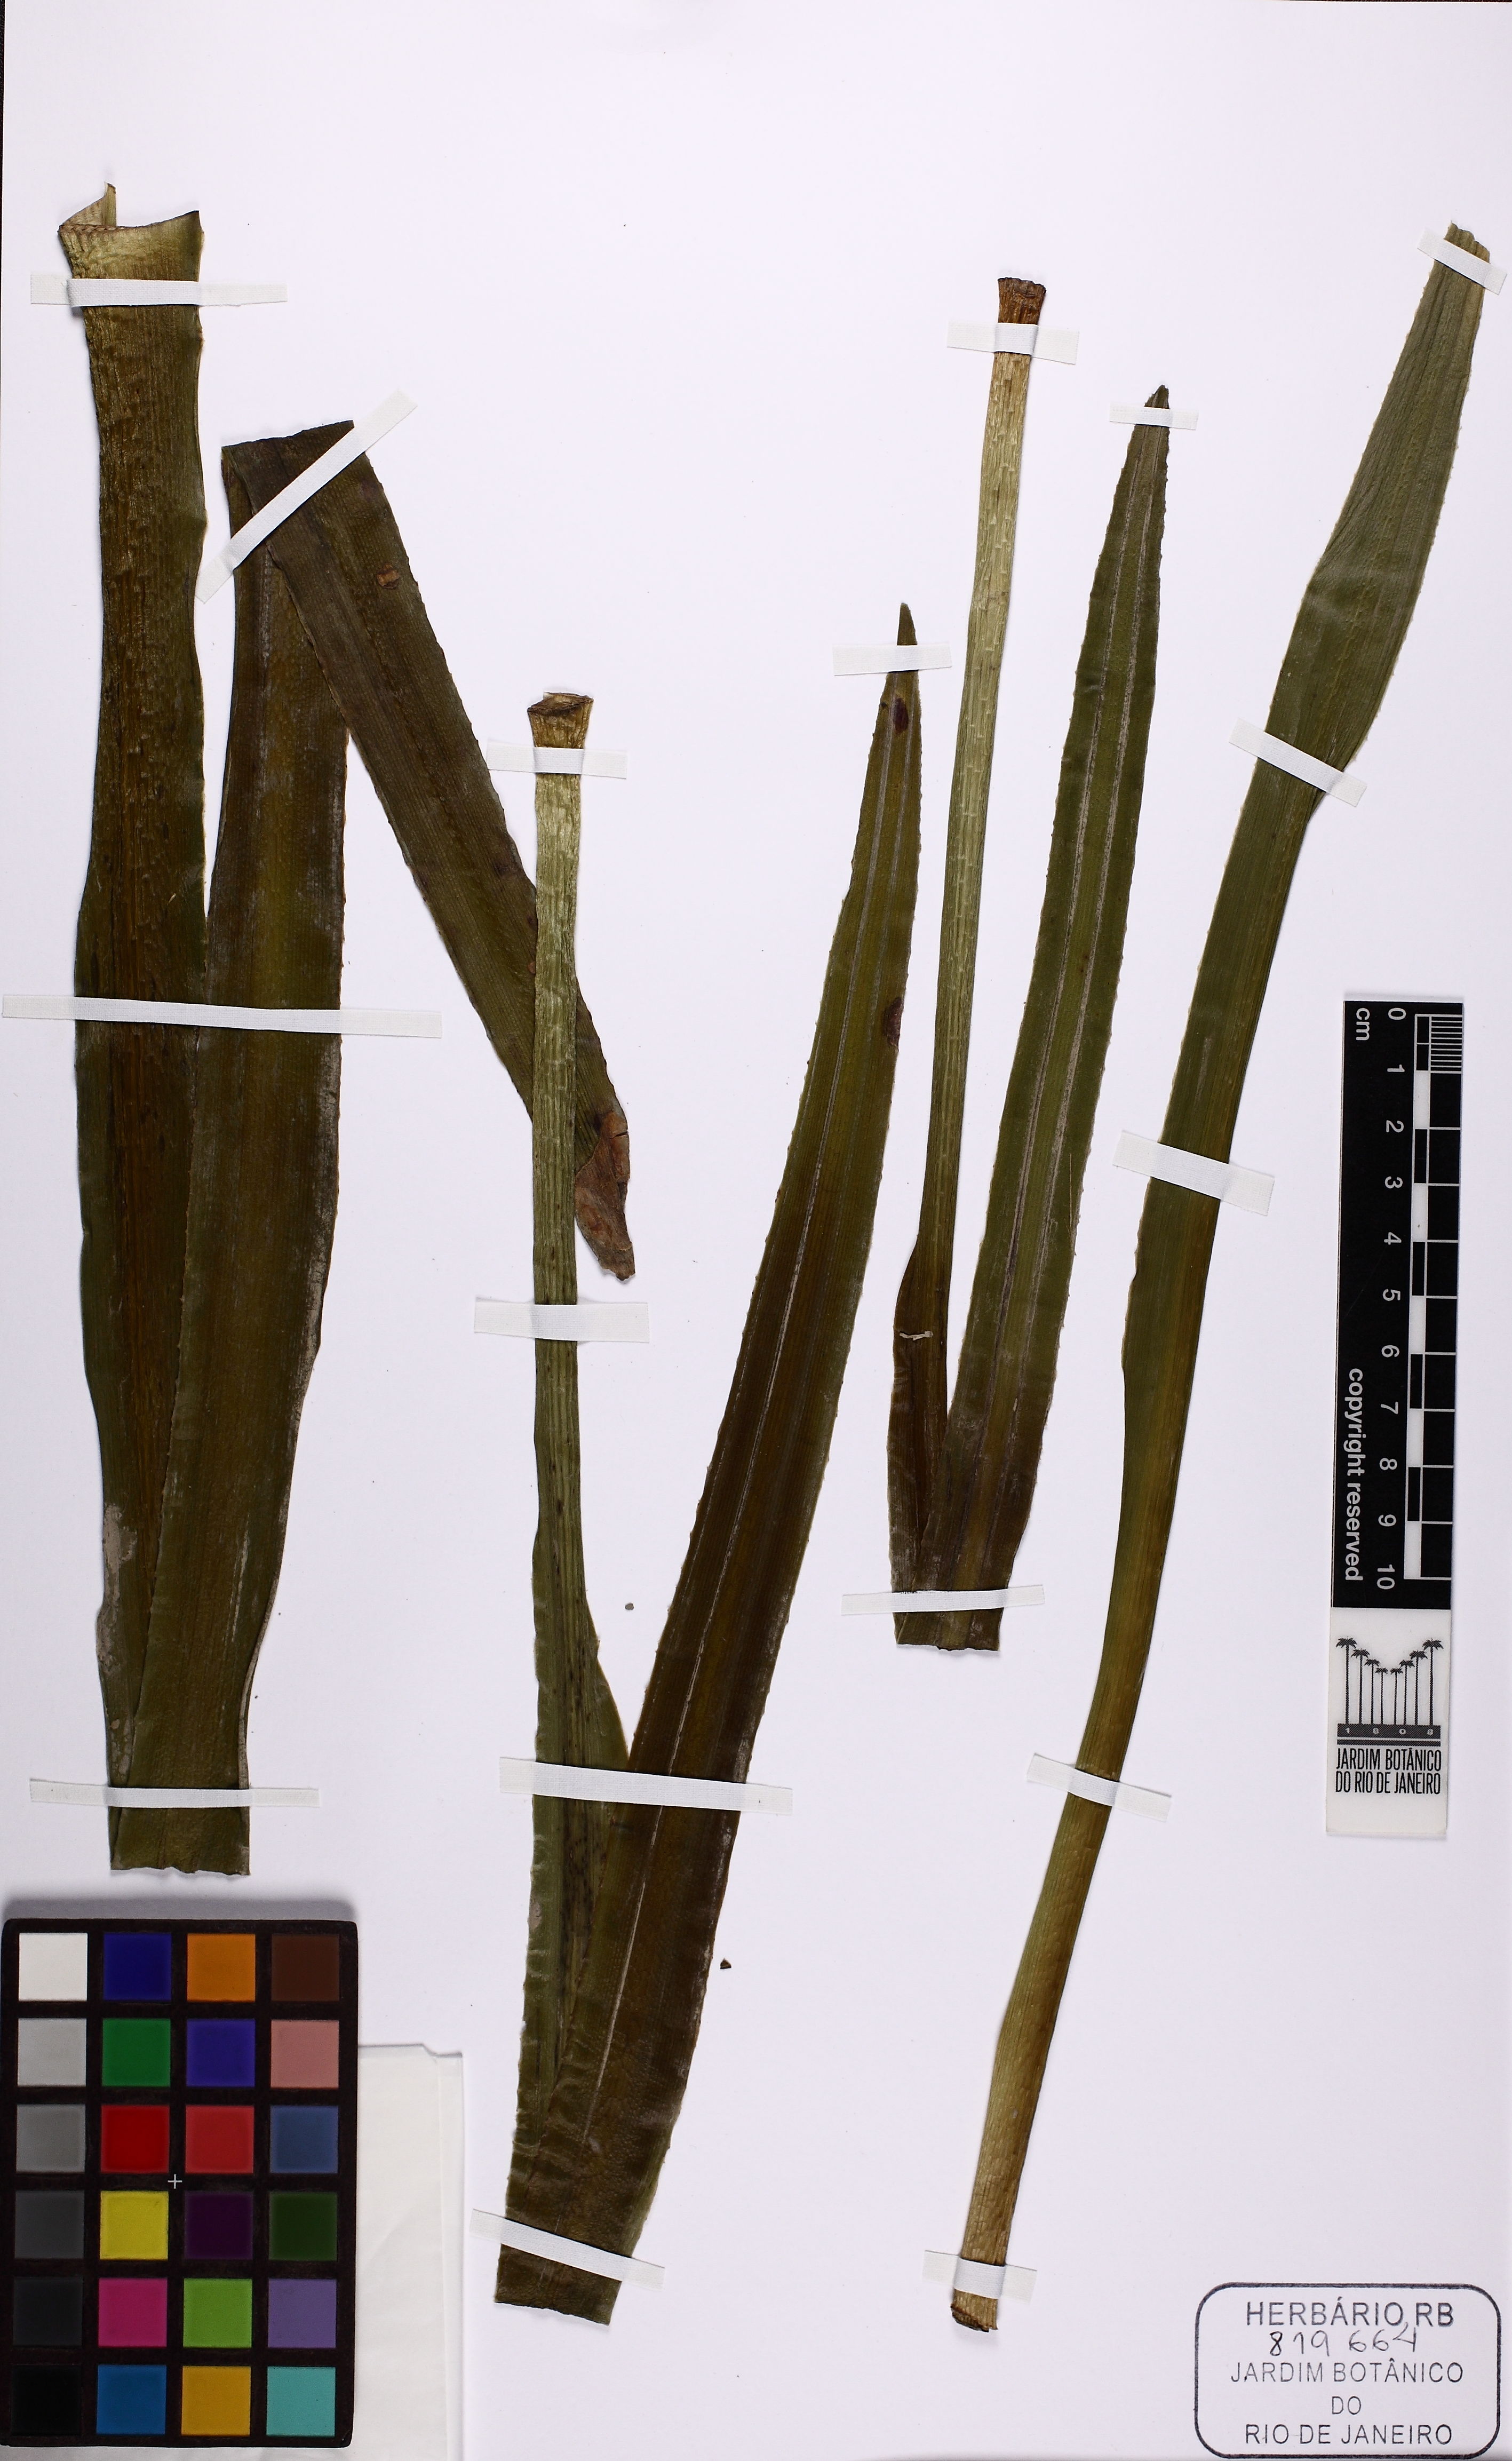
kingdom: Plantae
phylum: Tracheophyta
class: Liliopsida
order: Asparagales
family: Amaryllidaceae
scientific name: Amaryllidaceae
